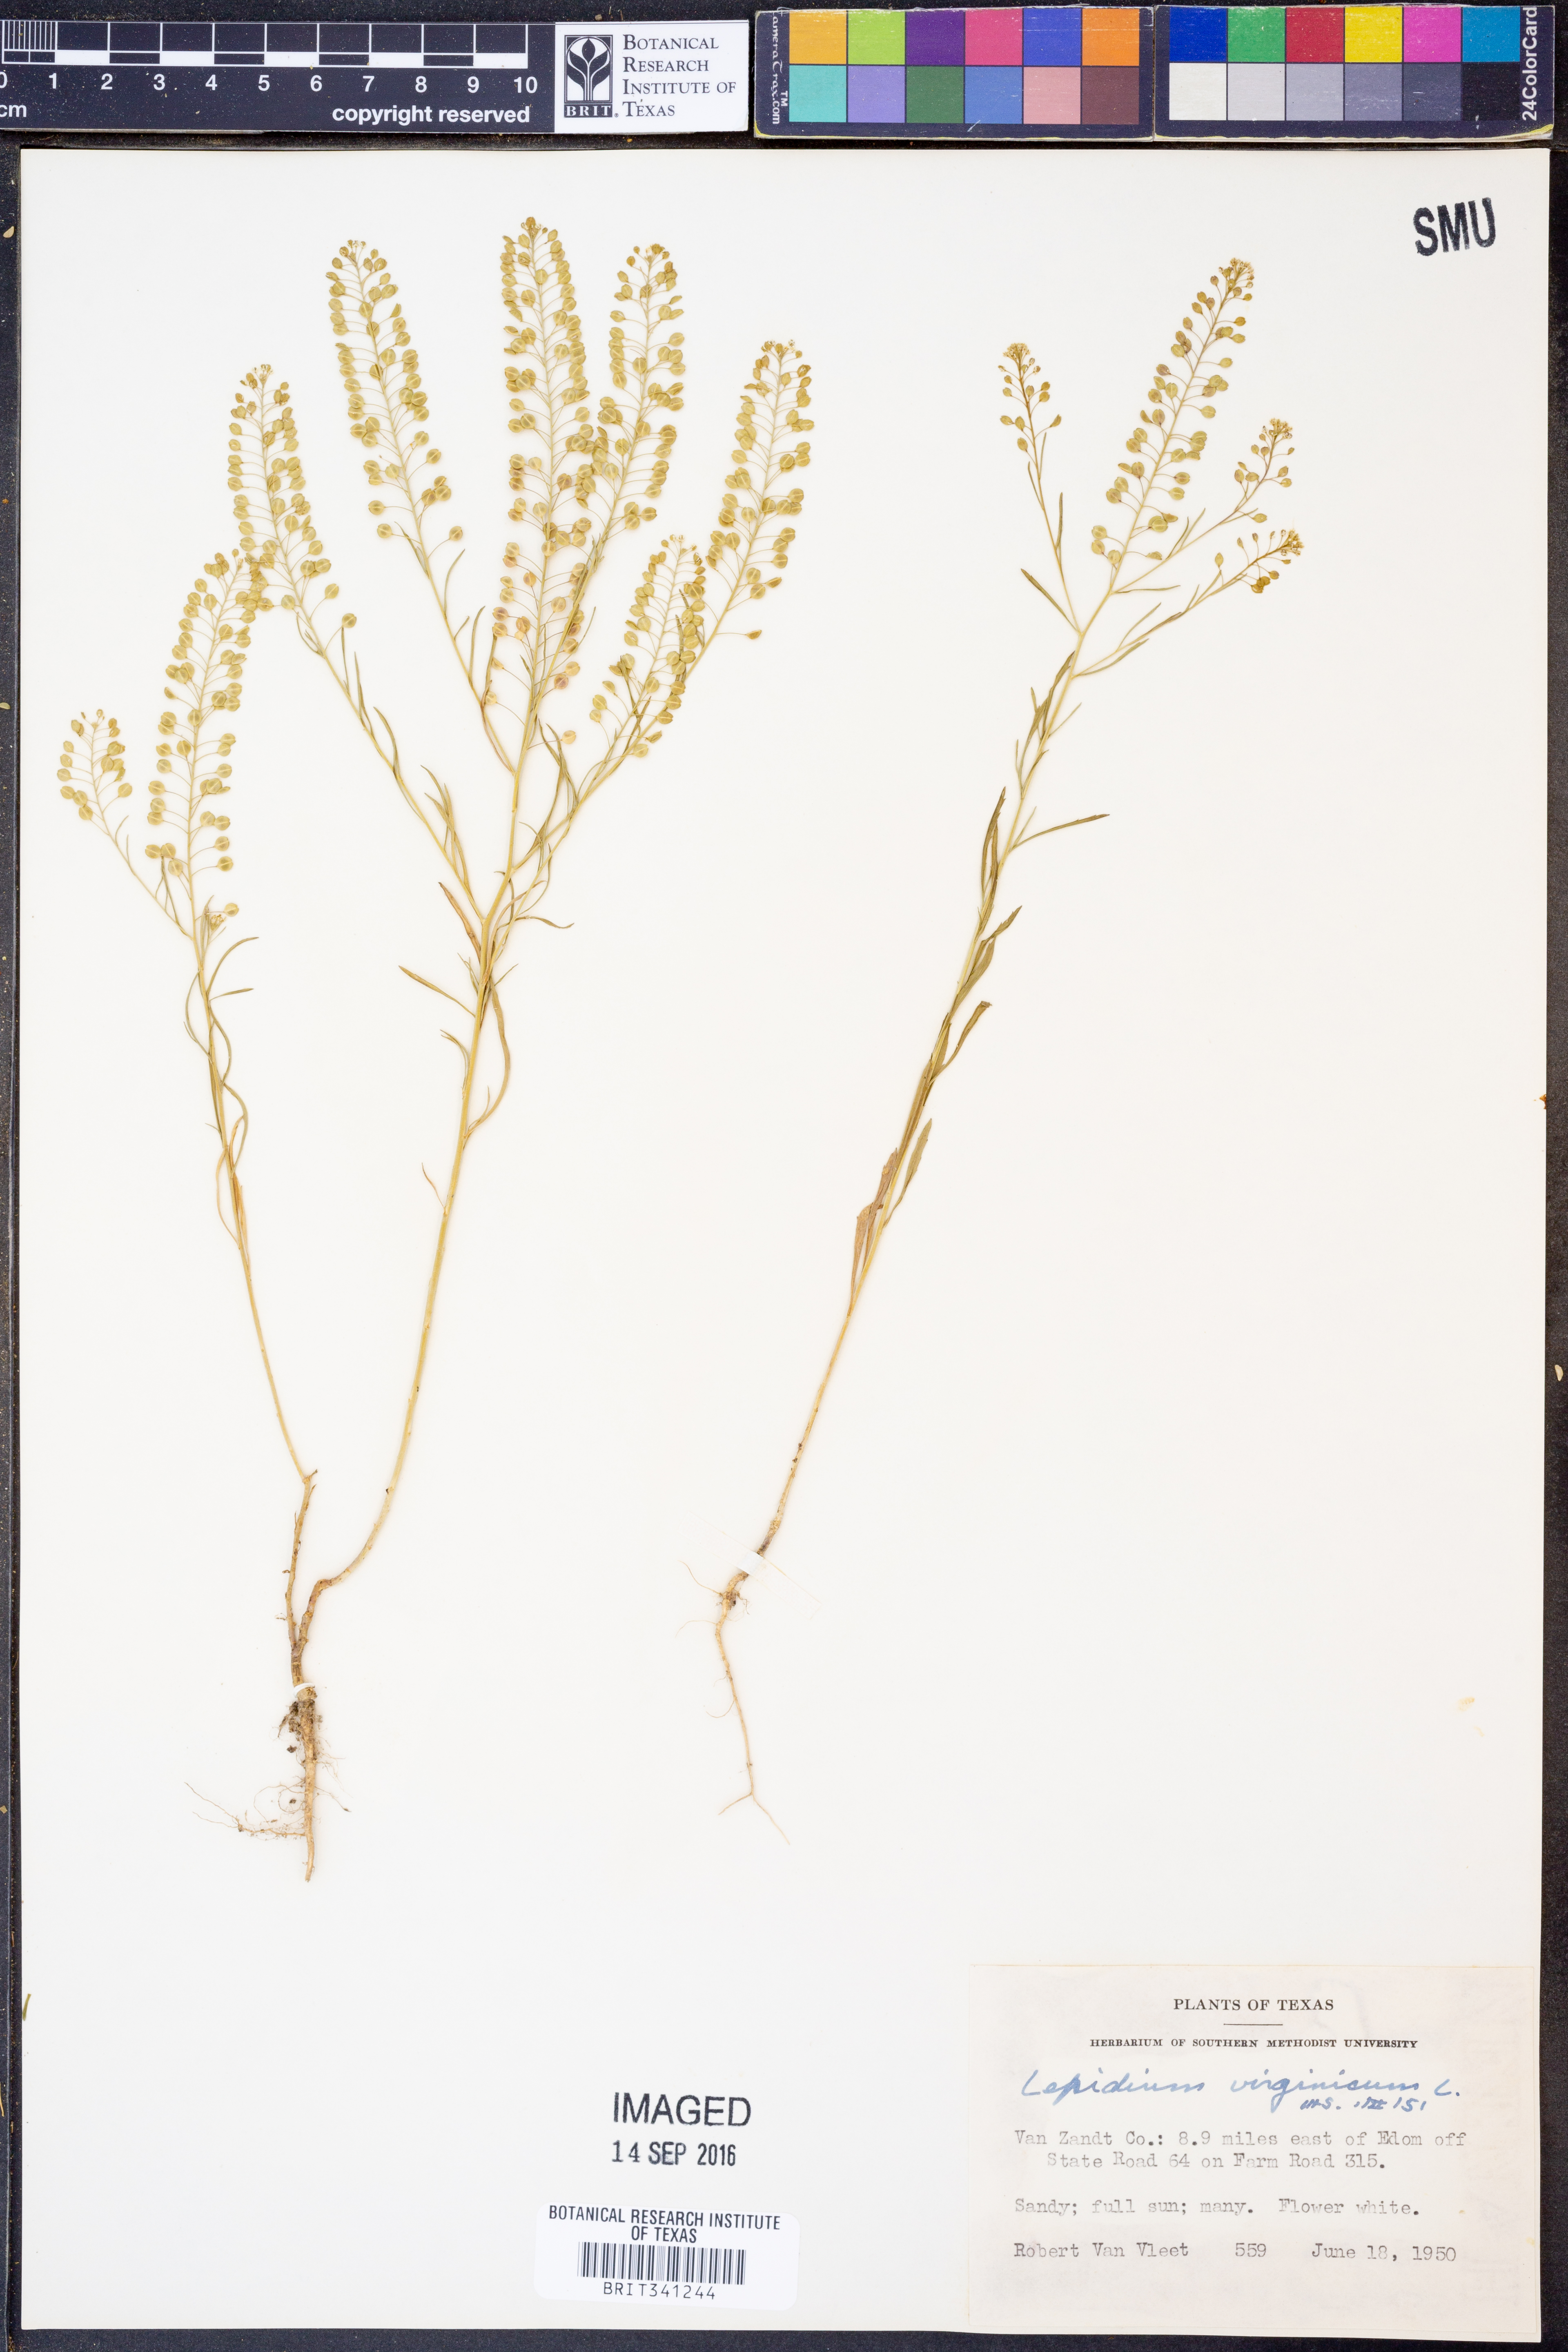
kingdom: Plantae
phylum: Tracheophyta
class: Magnoliopsida
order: Brassicales
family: Brassicaceae
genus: Lepidium
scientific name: Lepidium virginicum
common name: Least pepperwort
